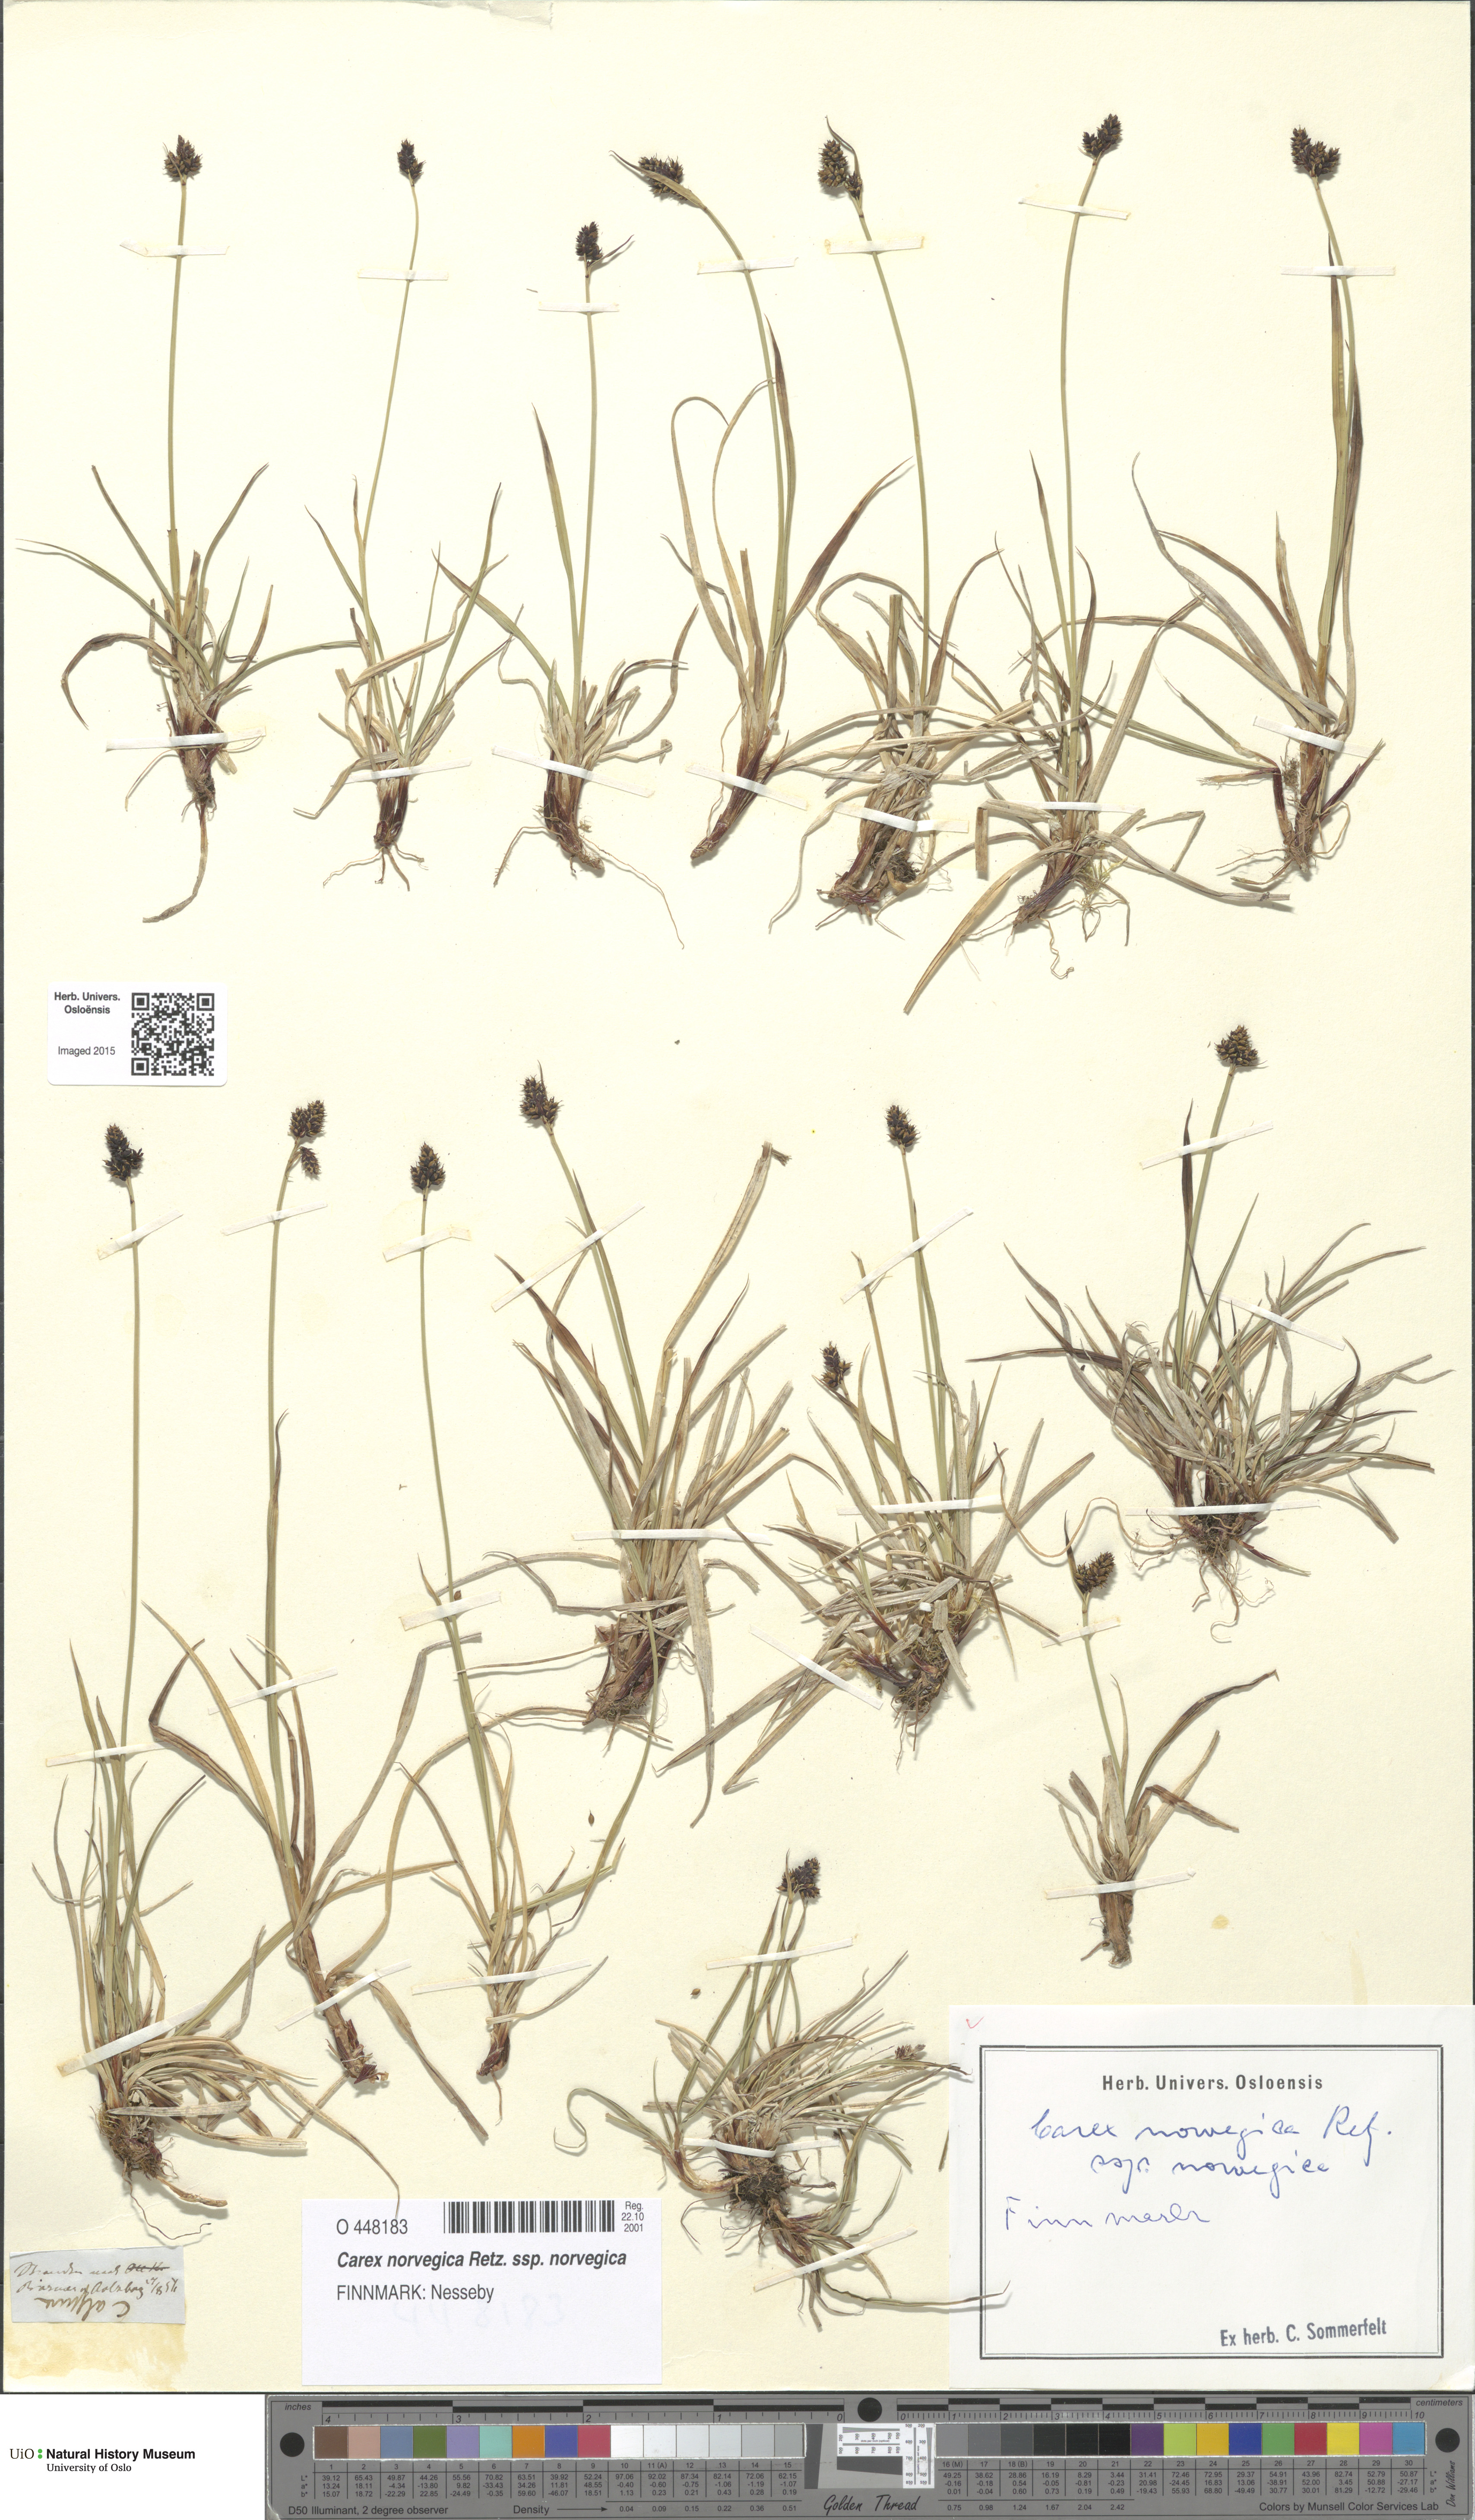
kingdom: Plantae
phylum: Tracheophyta
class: Liliopsida
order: Poales
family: Cyperaceae
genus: Carex
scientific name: Carex norvegica
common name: Close-headed alpine-sedge
